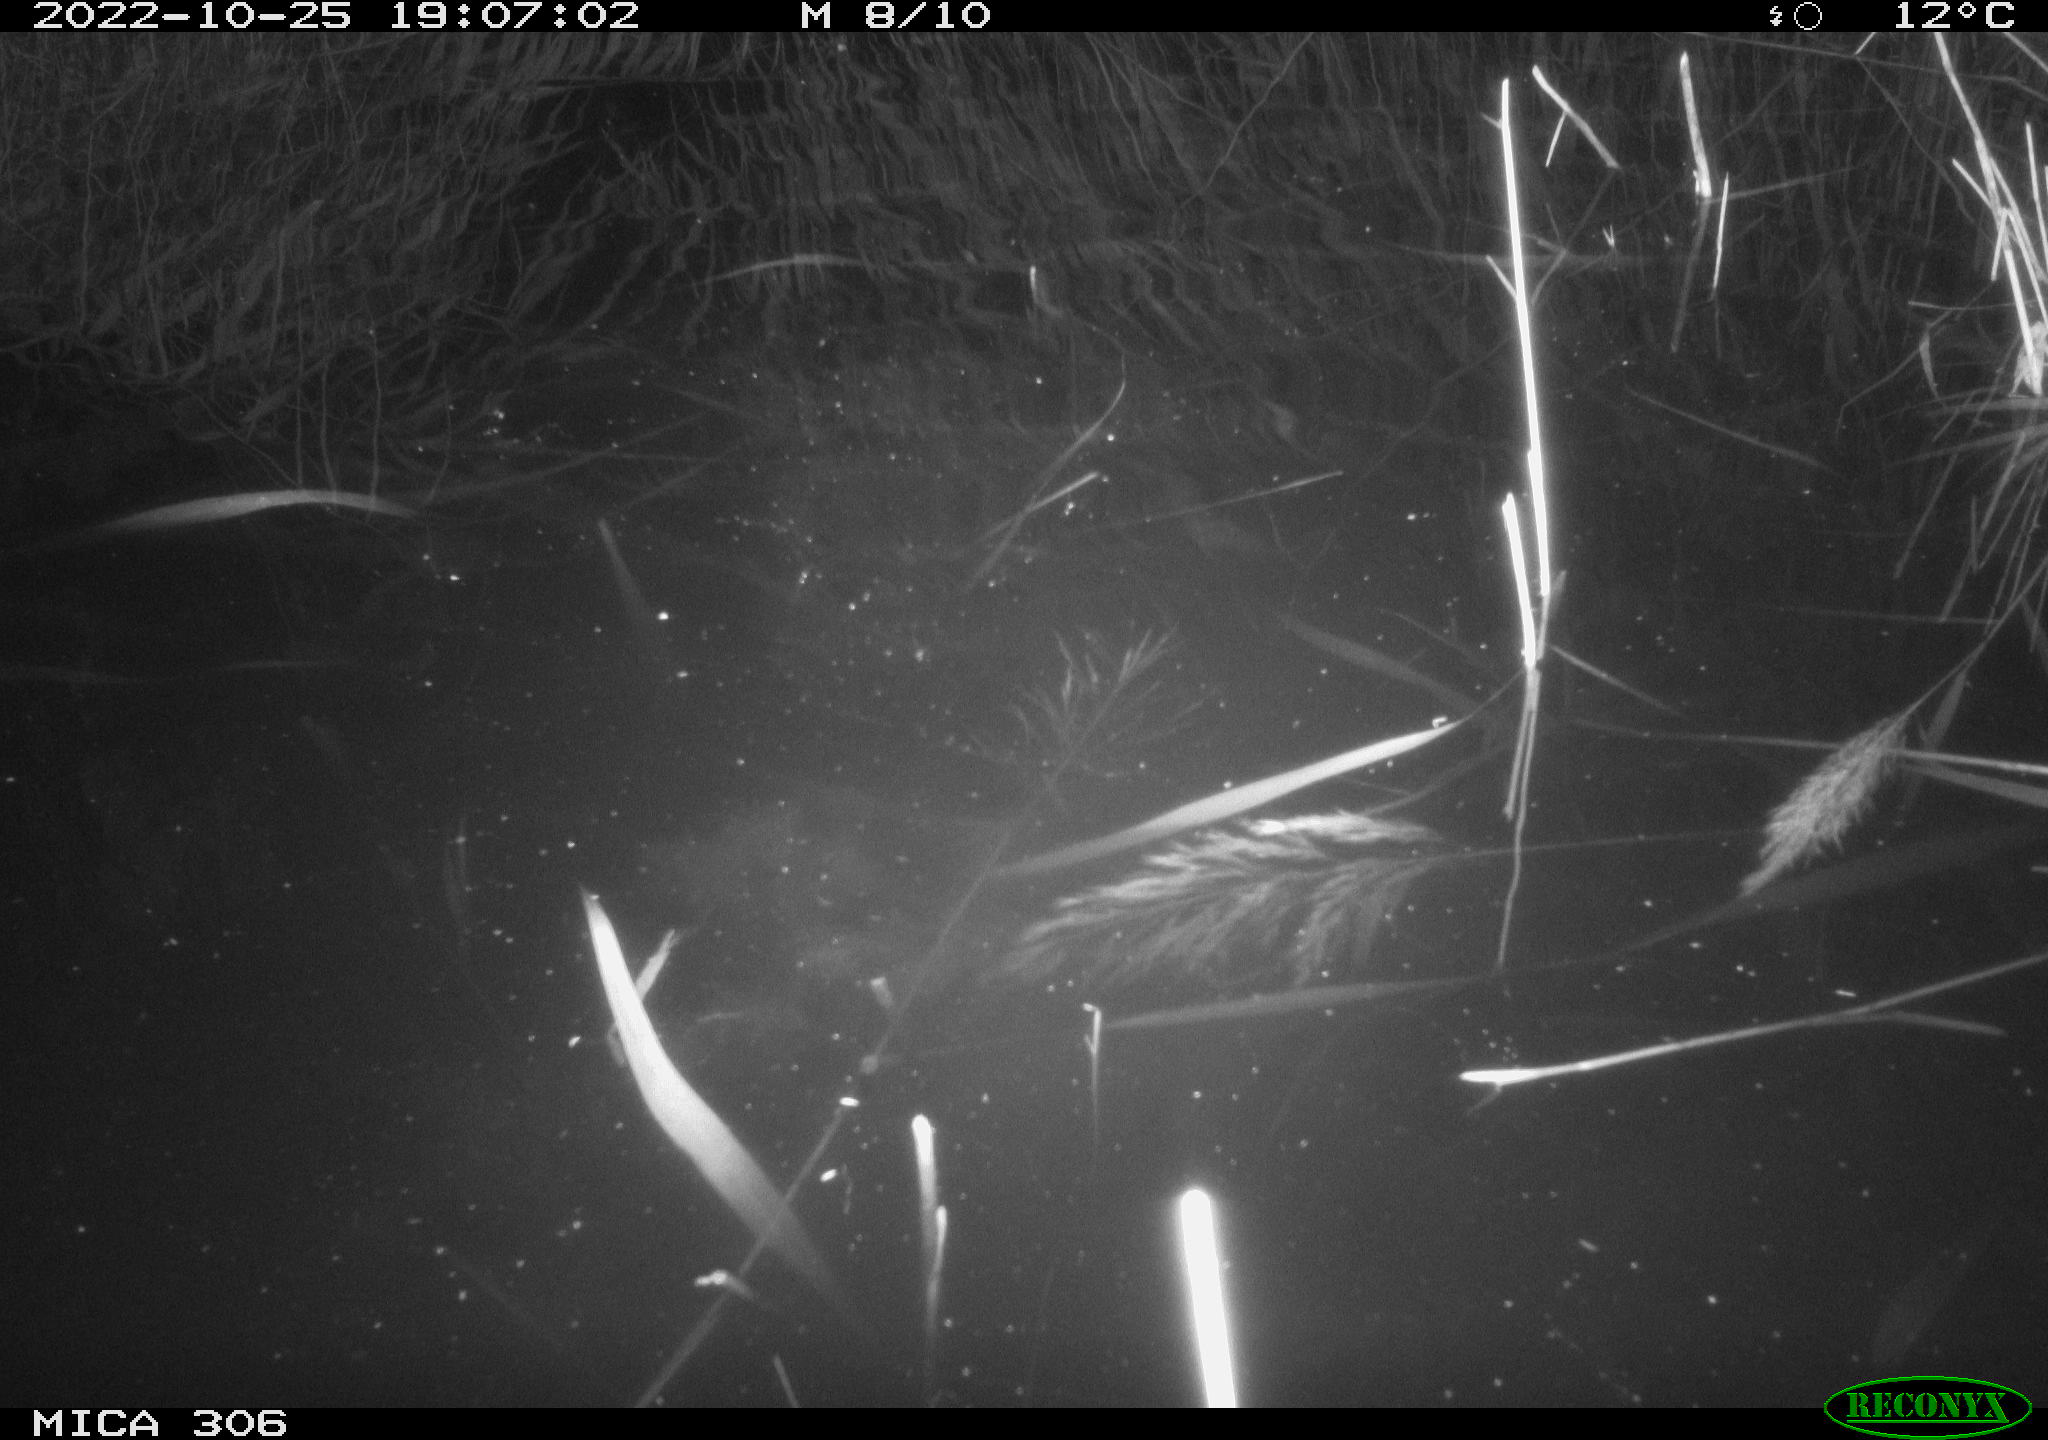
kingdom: Animalia
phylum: Chordata
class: Aves
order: Gruiformes
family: Rallidae
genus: Gallinula
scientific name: Gallinula chloropus
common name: Common moorhen
